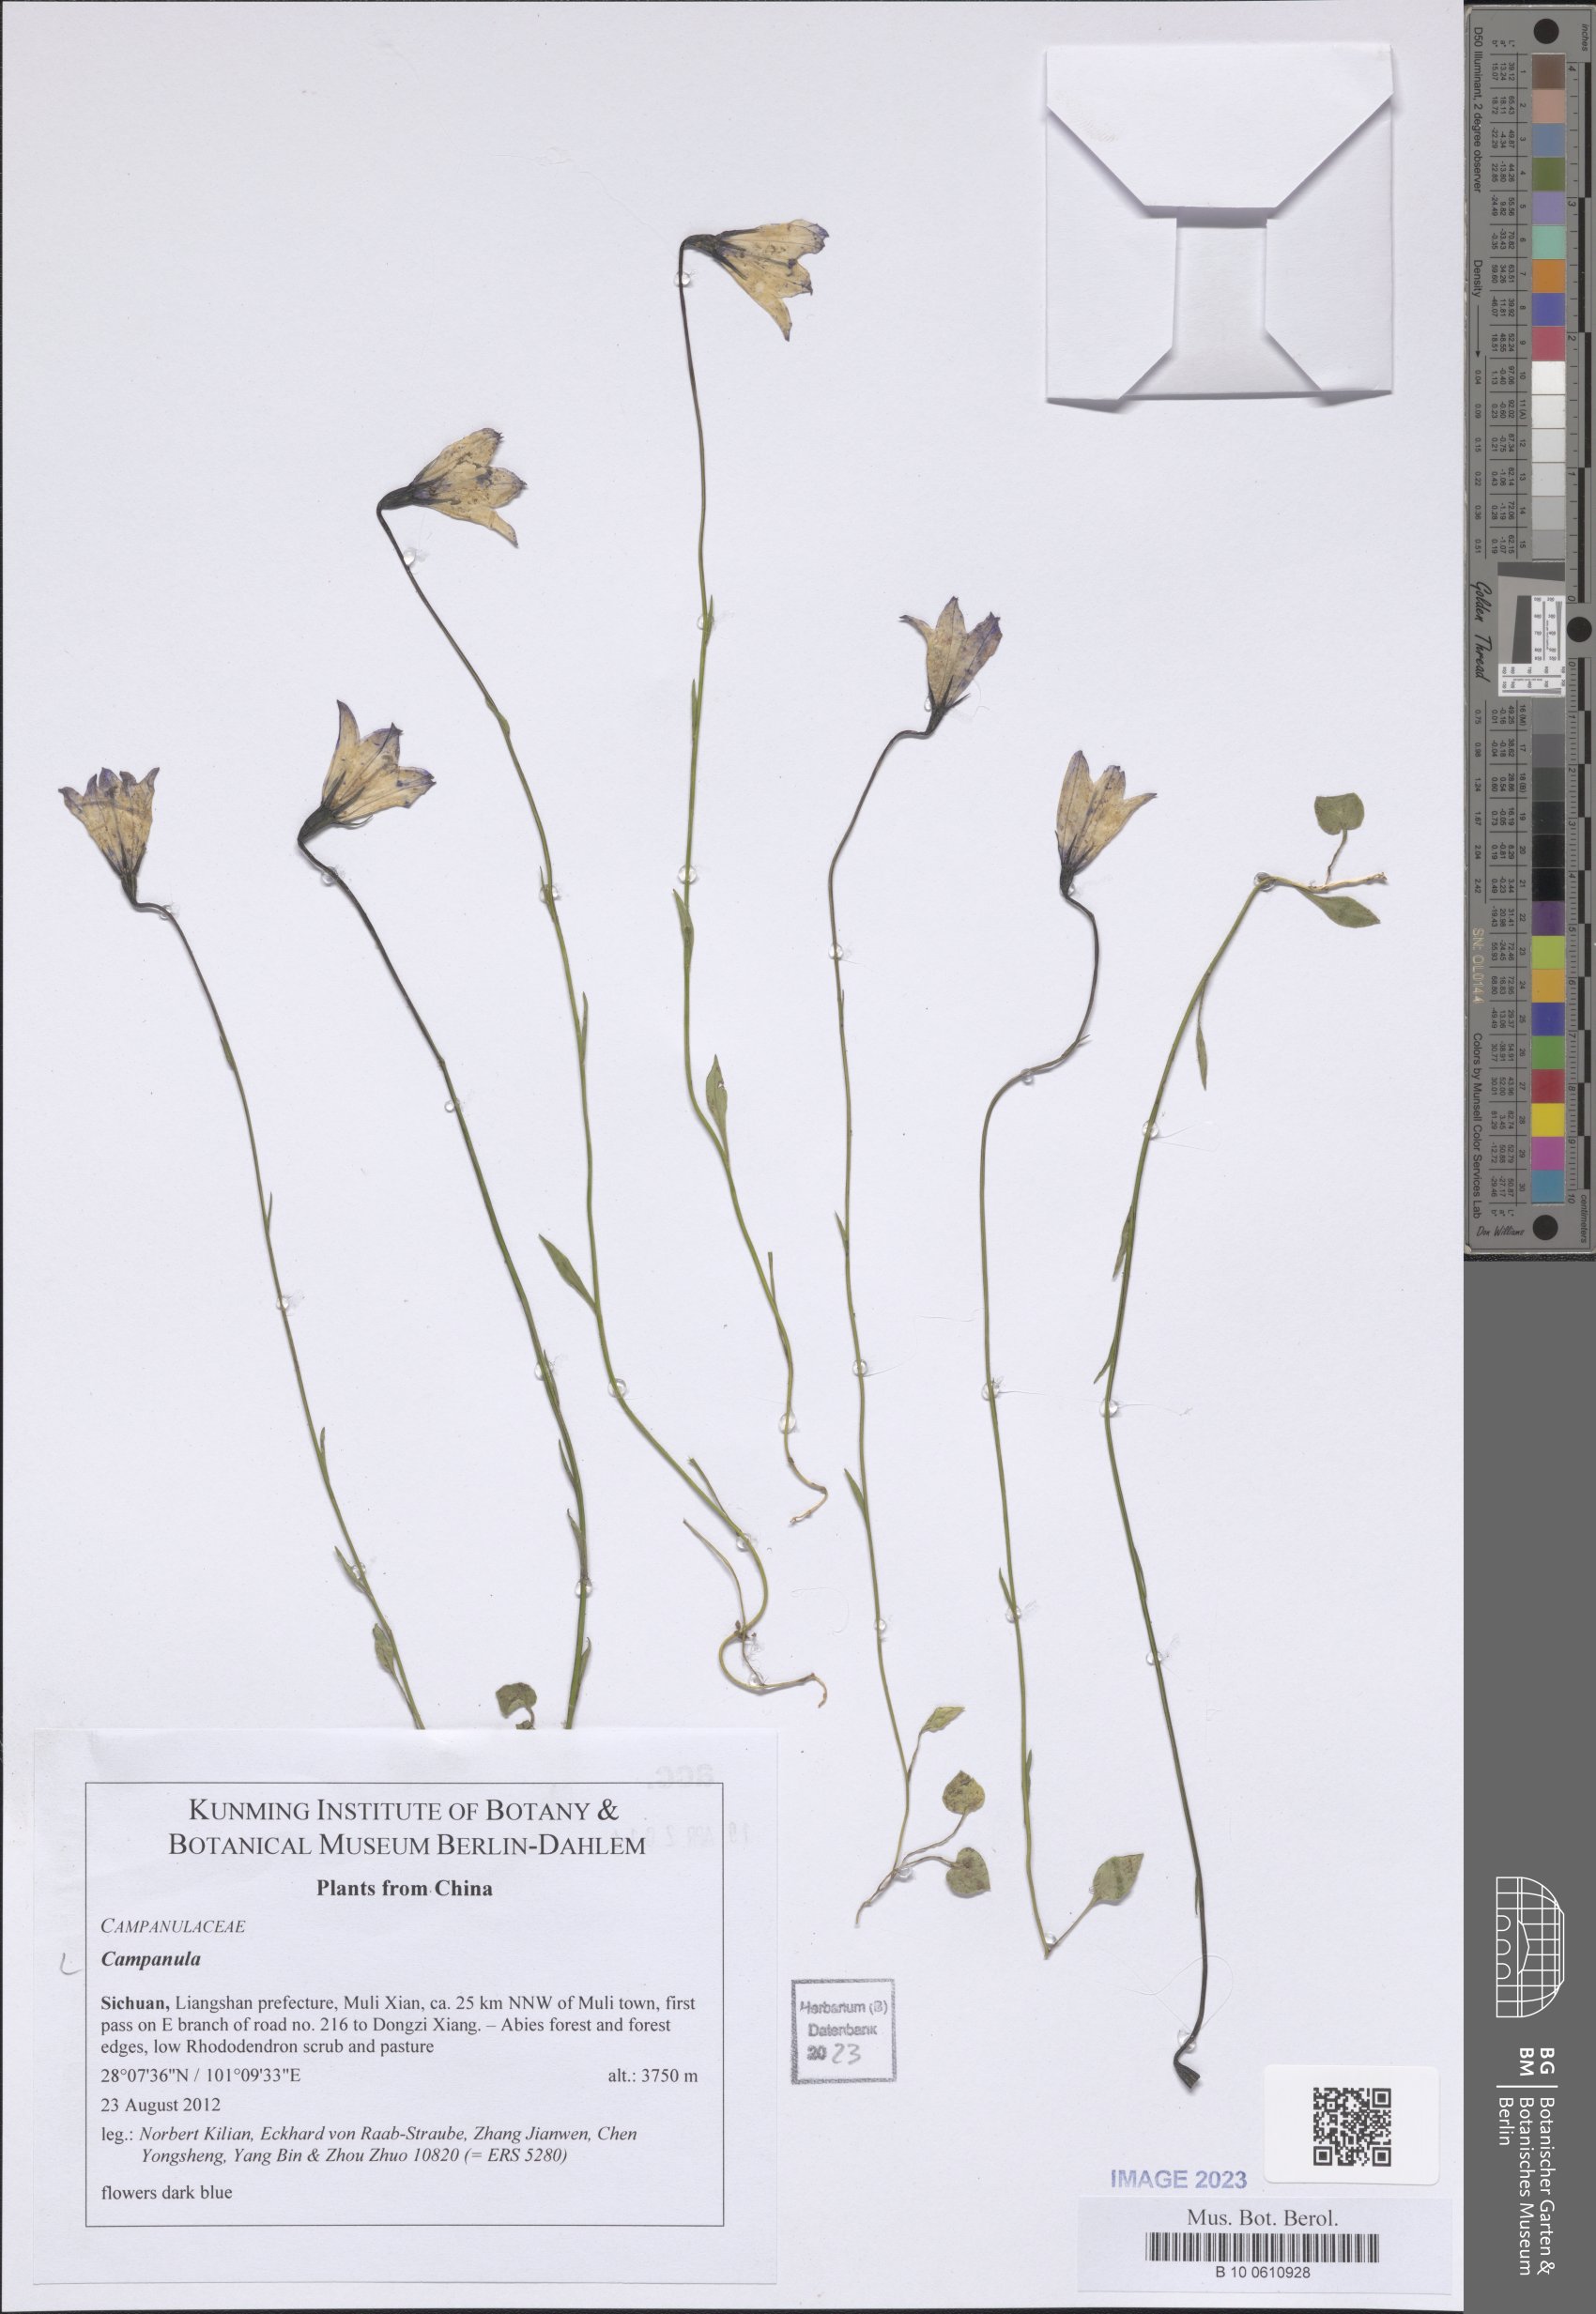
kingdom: Plantae
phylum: Tracheophyta
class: Magnoliopsida
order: Asterales
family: Campanulaceae
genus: Campanula
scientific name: Campanula
